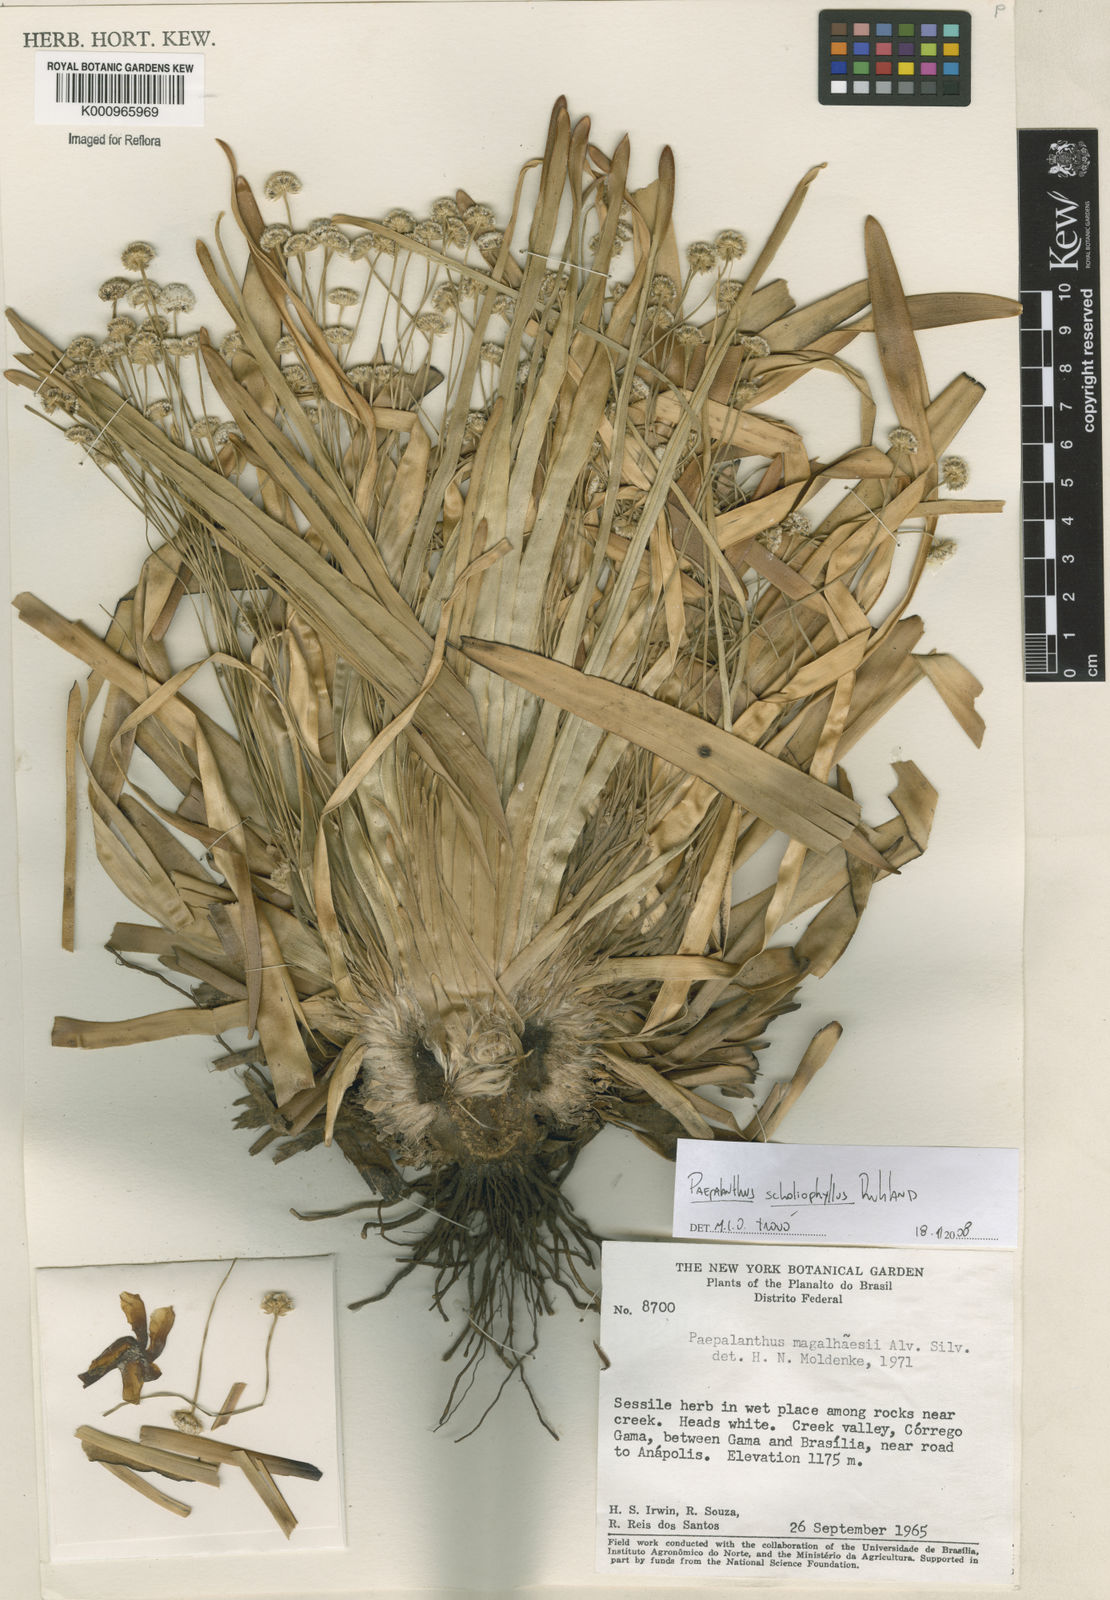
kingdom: Plantae
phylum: Tracheophyta
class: Liliopsida
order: Poales
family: Eriocaulaceae
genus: Paepalanthus
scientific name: Paepalanthus scholiophyllus
